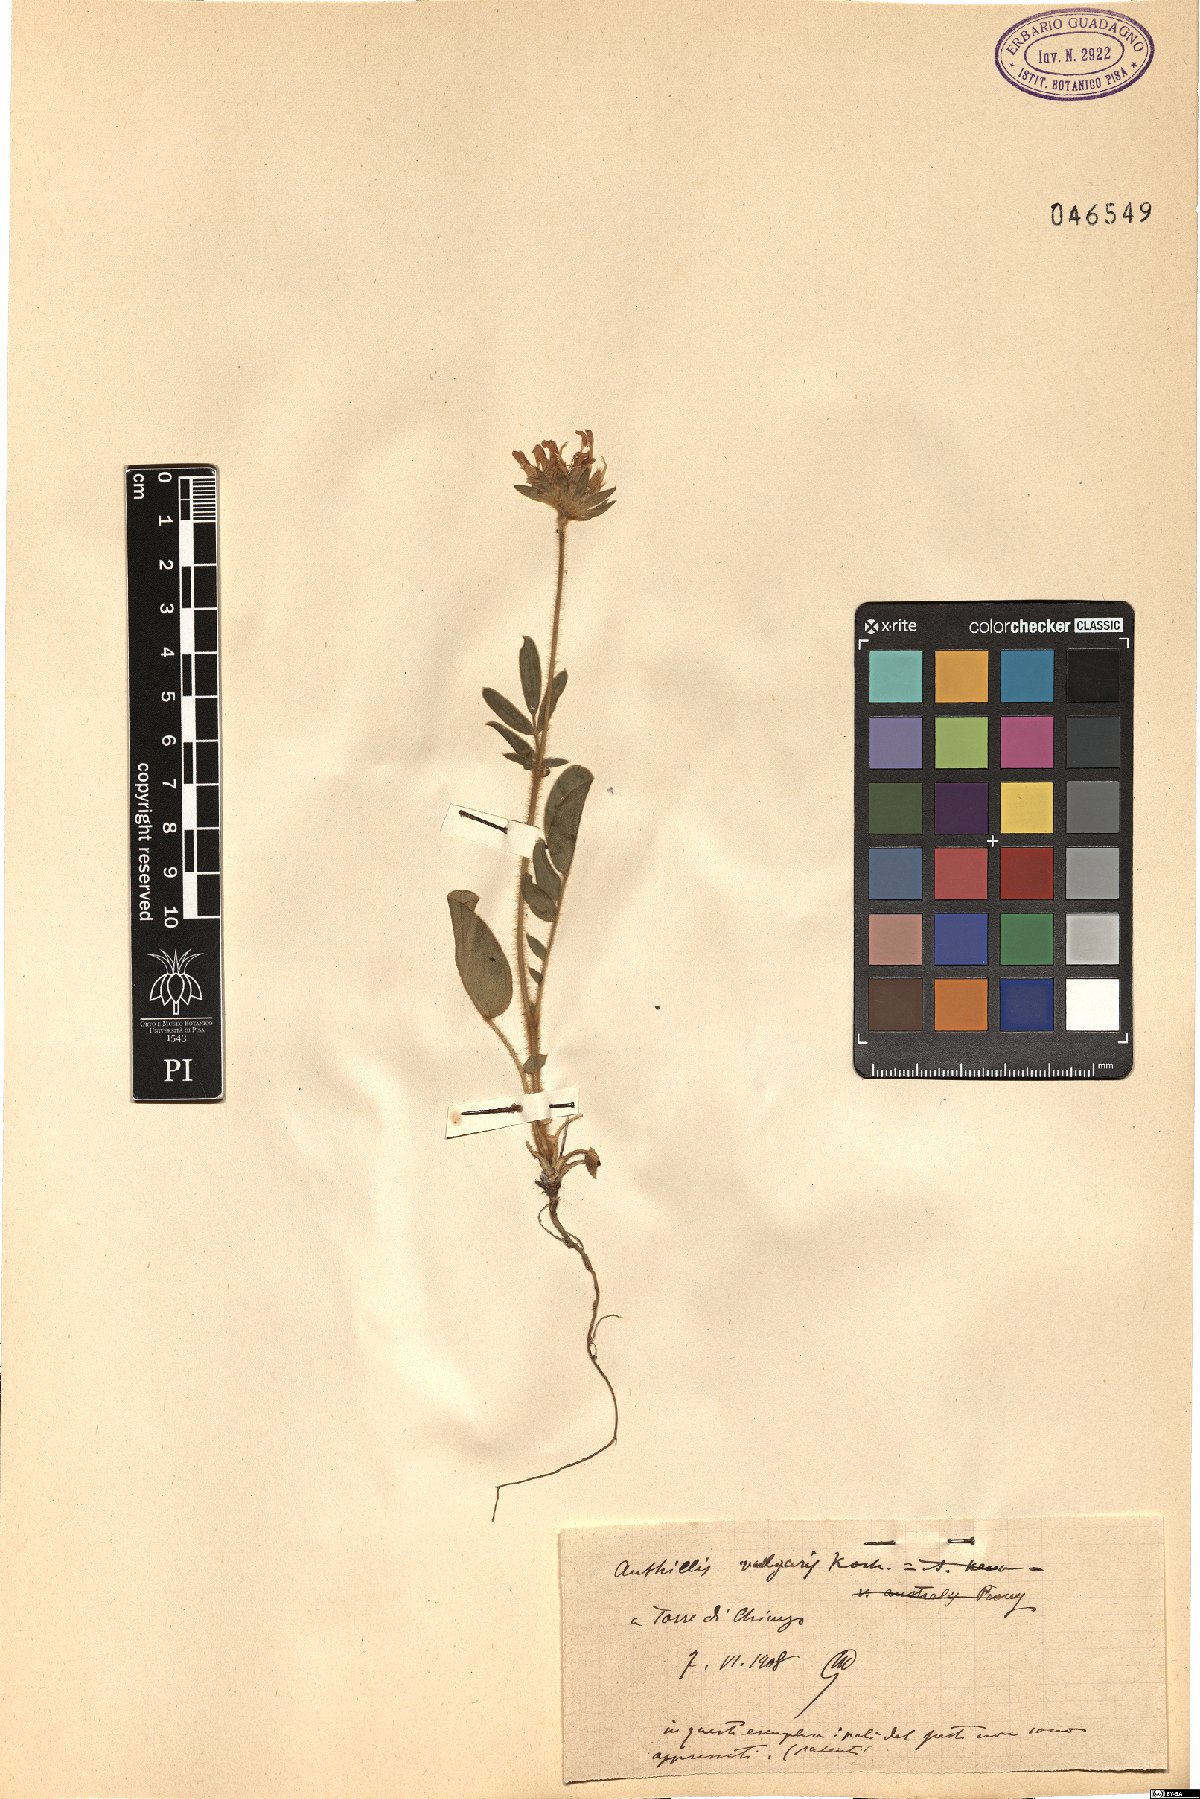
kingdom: Plantae
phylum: Tracheophyta
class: Magnoliopsida
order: Fabales
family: Fabaceae
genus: Anthyllis
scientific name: Anthyllis vulneraria
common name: Kidney vetch
